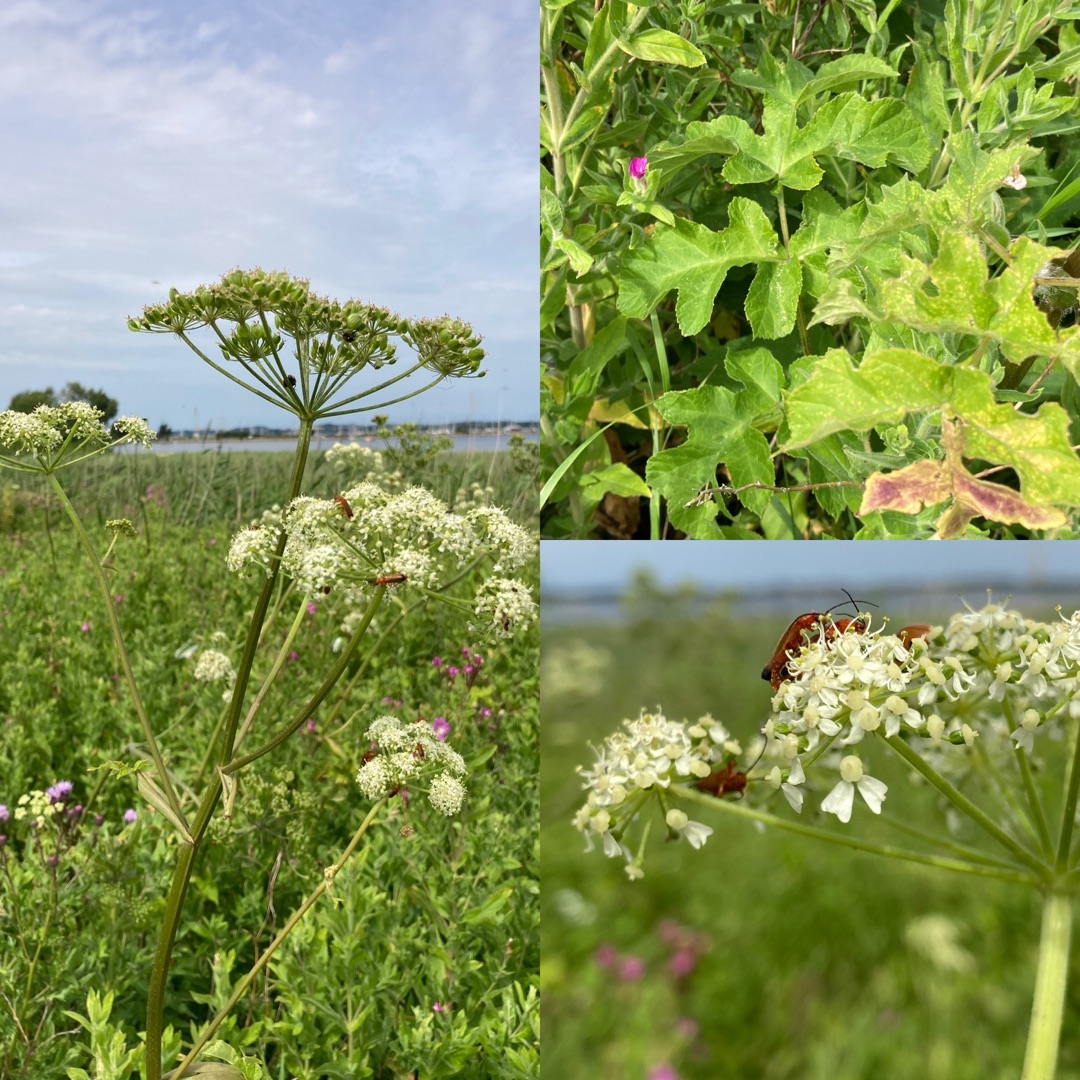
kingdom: Plantae
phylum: Tracheophyta
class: Magnoliopsida
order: Apiales
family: Apiaceae
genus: Heracleum
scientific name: Heracleum sphondylium
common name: Almindelig bjørneklo
